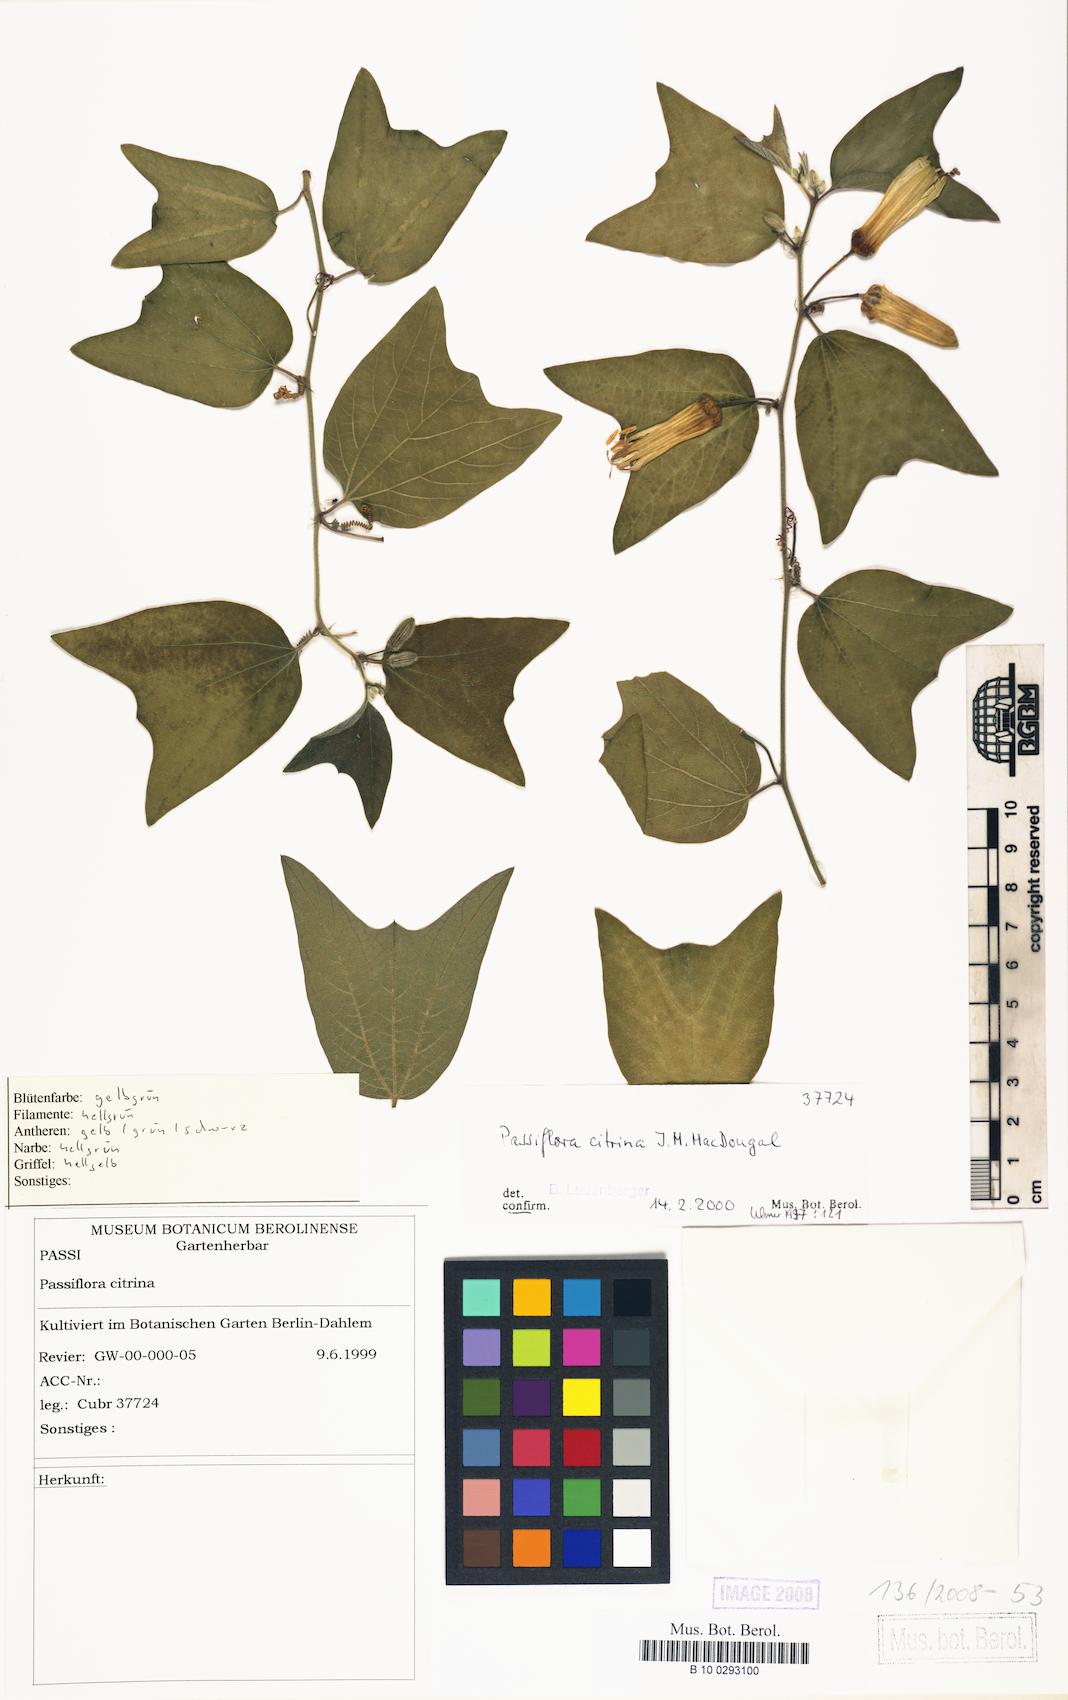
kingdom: Plantae
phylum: Tracheophyta
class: Magnoliopsida
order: Malpighiales
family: Passifloraceae
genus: Passiflora
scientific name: Passiflora citrina
